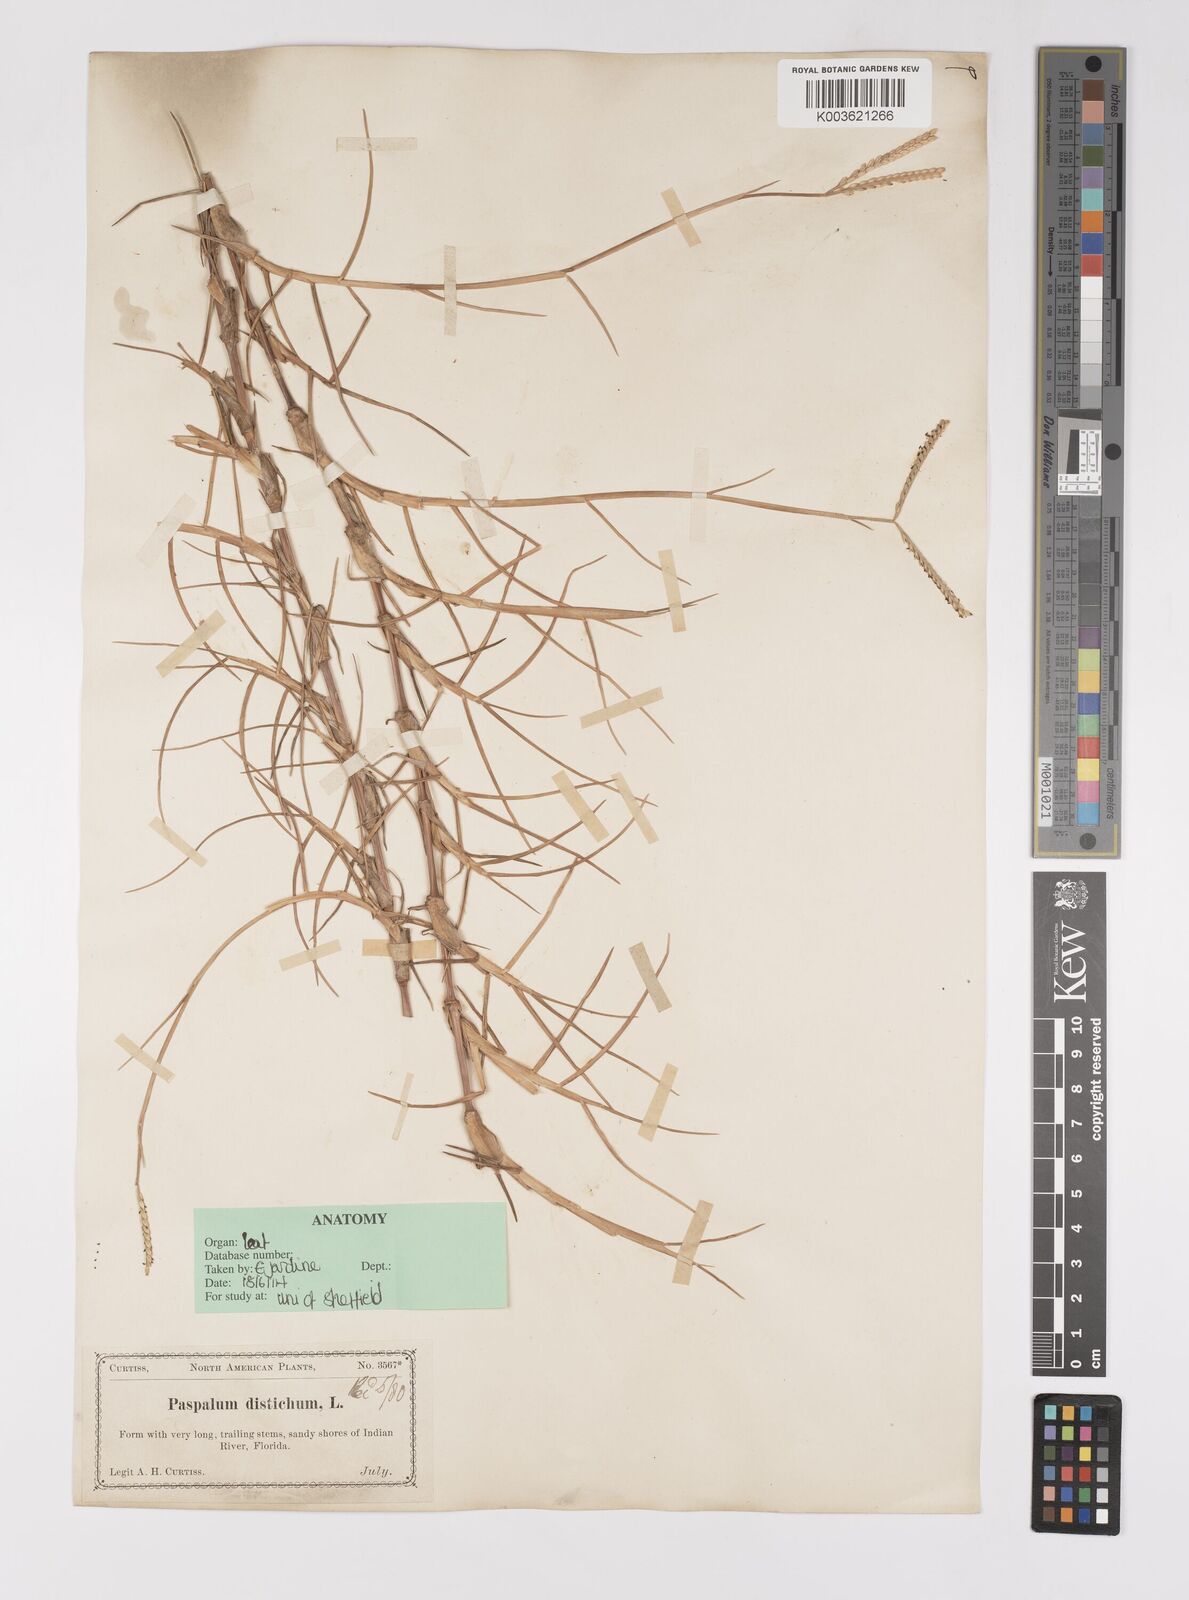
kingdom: Plantae
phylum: Tracheophyta
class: Liliopsida
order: Poales
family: Poaceae
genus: Paspalum
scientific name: Paspalum distichum
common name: Knotgrass
